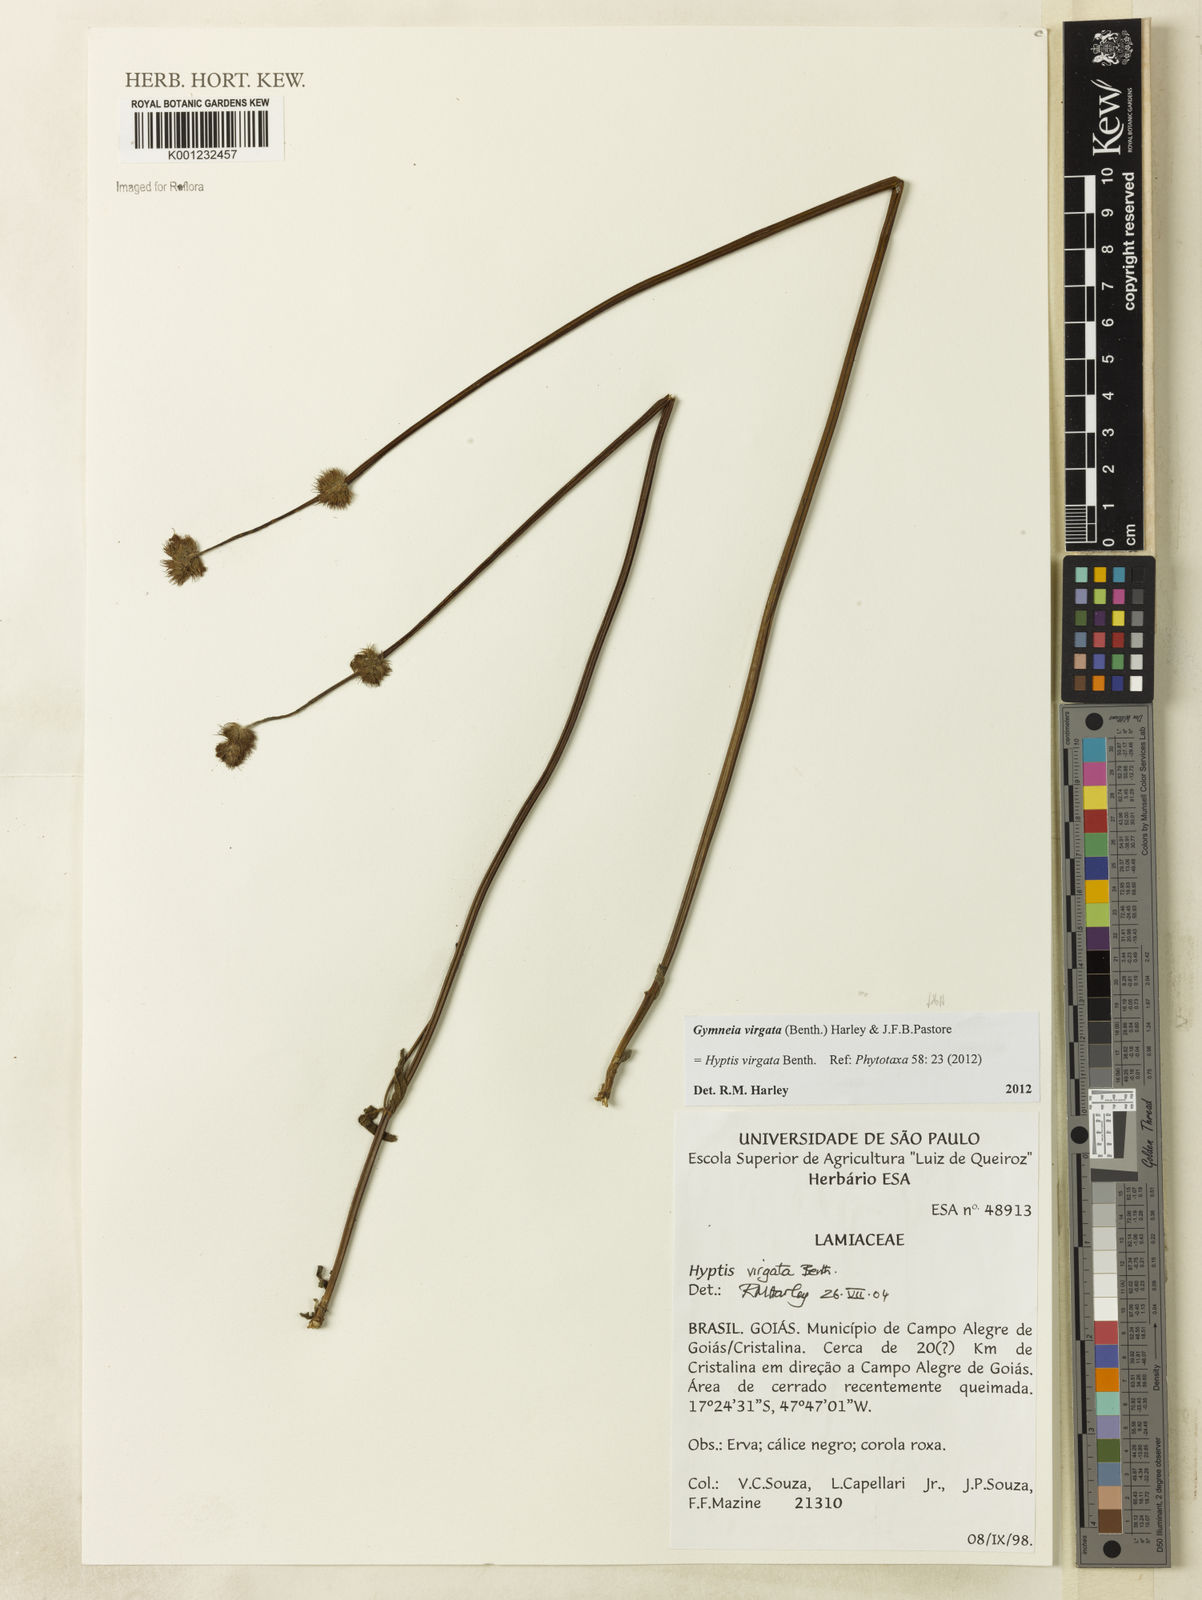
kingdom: Plantae
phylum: Tracheophyta
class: Magnoliopsida
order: Lamiales
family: Lamiaceae
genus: Gymneia
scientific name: Gymneia virgata
